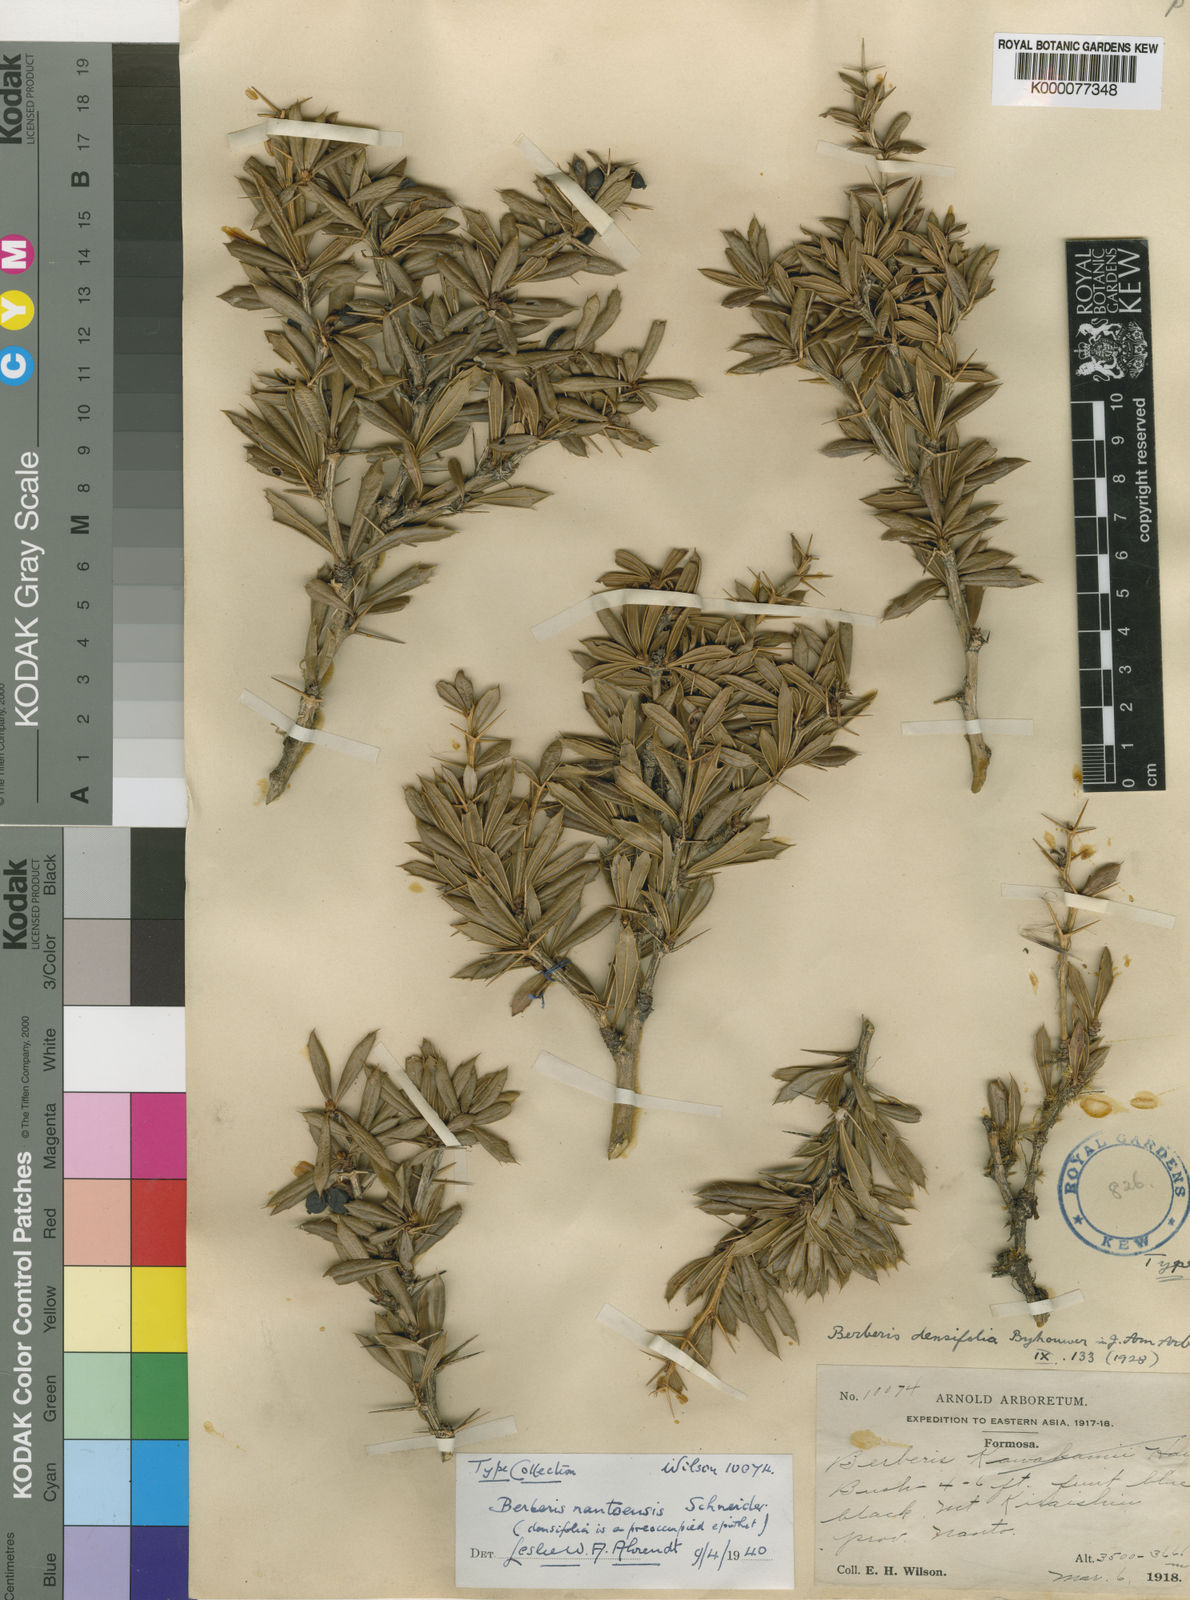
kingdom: Plantae
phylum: Tracheophyta
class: Magnoliopsida
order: Ranunculales
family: Berberidaceae
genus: Berberis
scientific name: Berberis nantoensis
